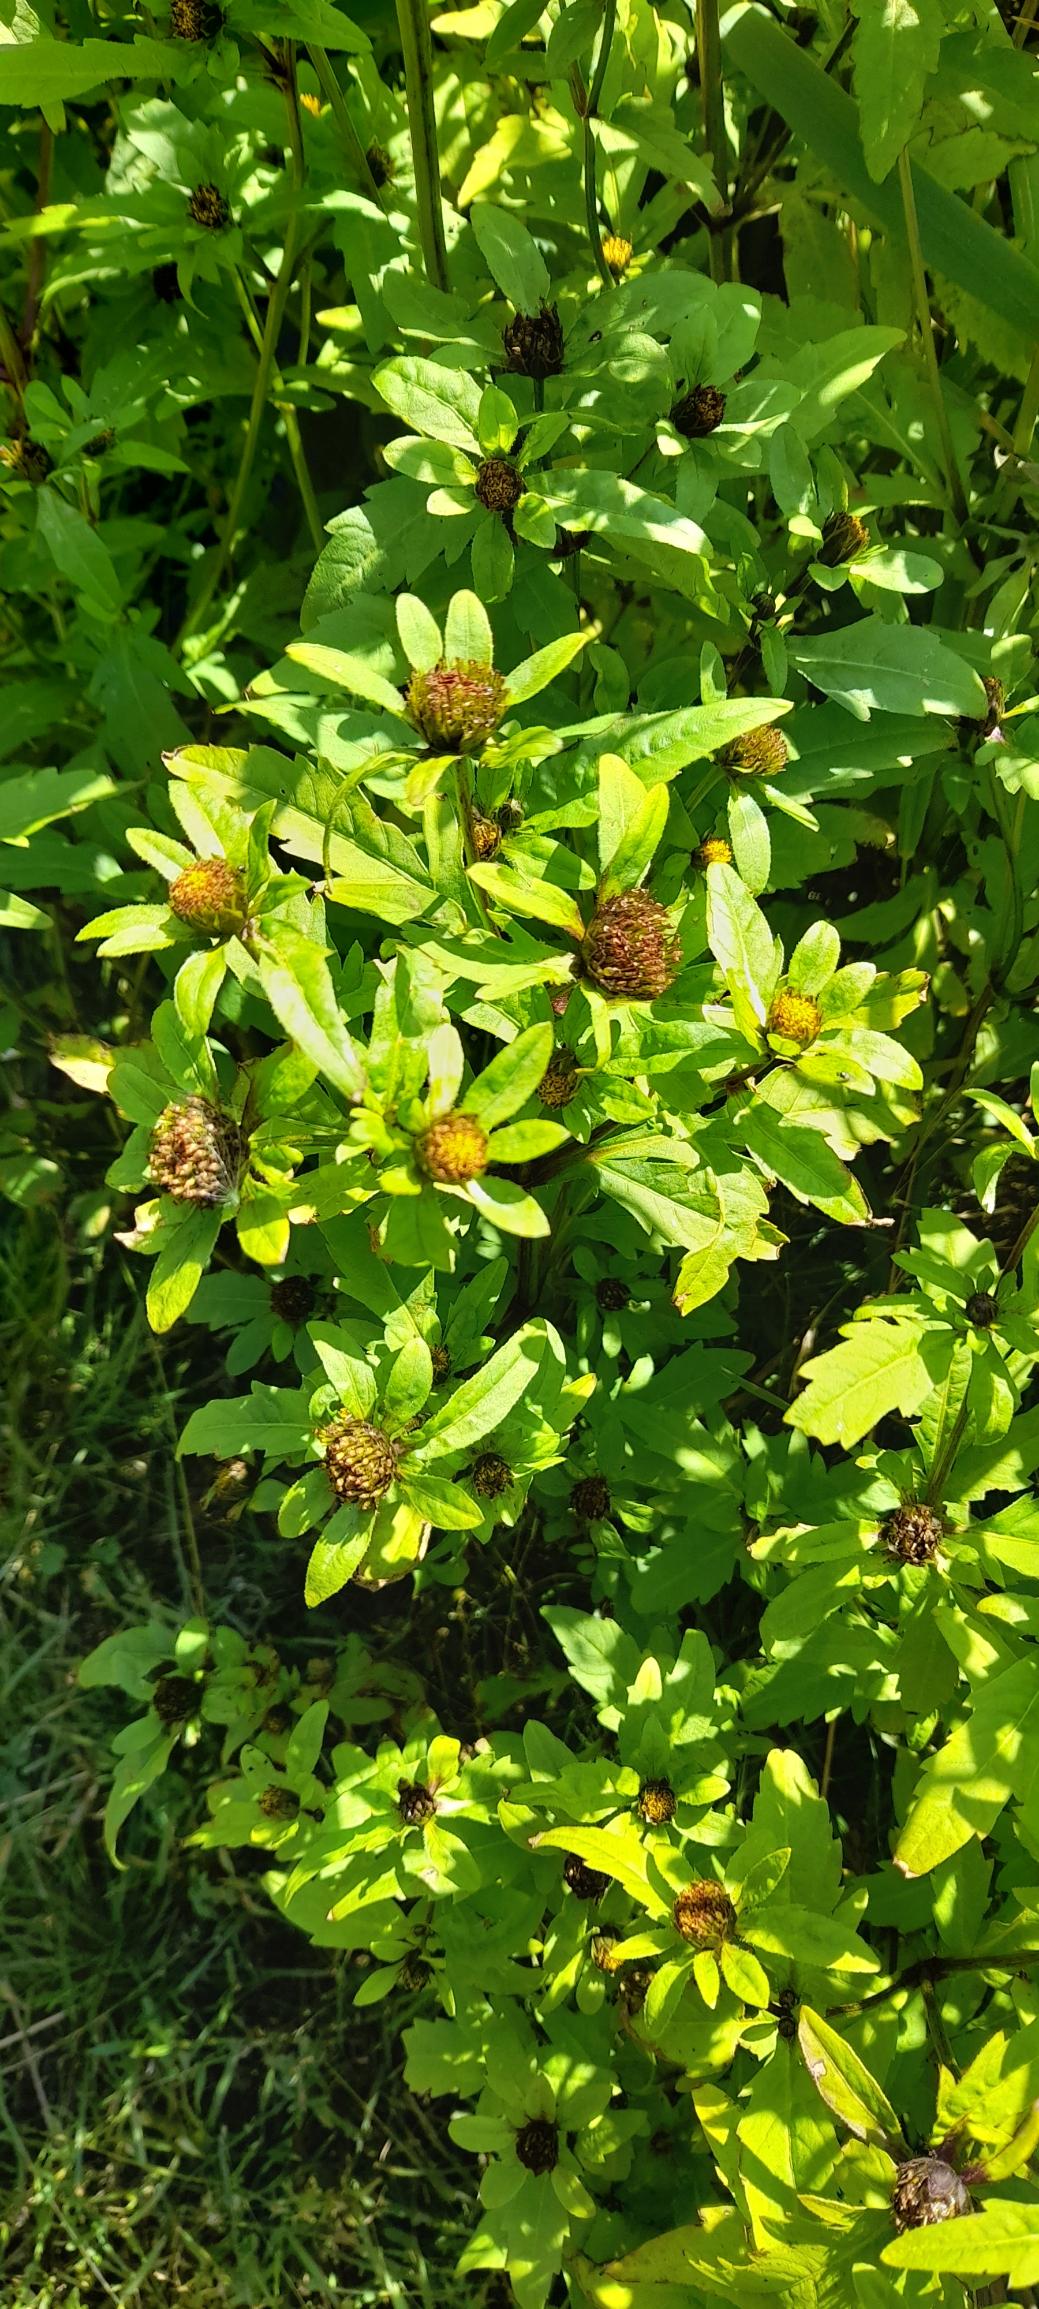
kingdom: Plantae
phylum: Tracheophyta
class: Magnoliopsida
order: Asterales
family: Asteraceae
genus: Bidens
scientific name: Bidens tripartita
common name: Fliget brøndsel
